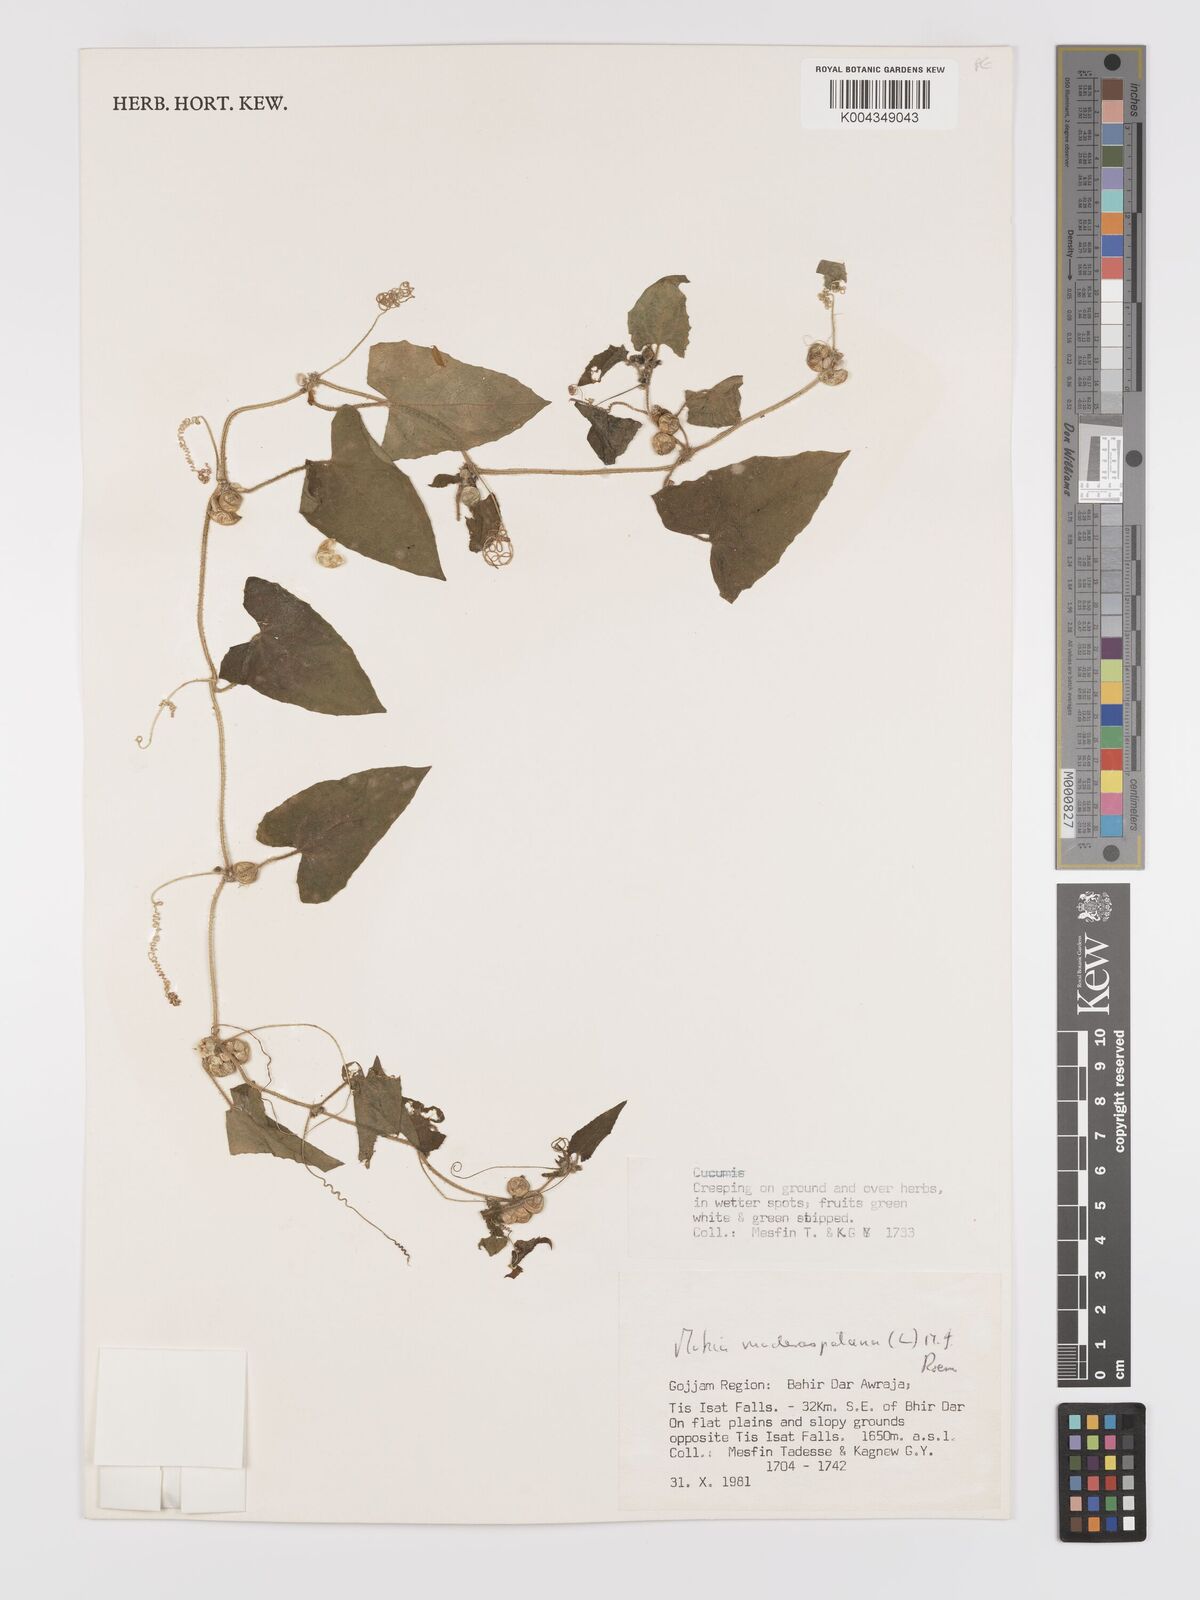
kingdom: Plantae
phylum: Tracheophyta
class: Magnoliopsida
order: Cucurbitales
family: Cucurbitaceae
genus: Cucumis
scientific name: Cucumis maderaspatanus
